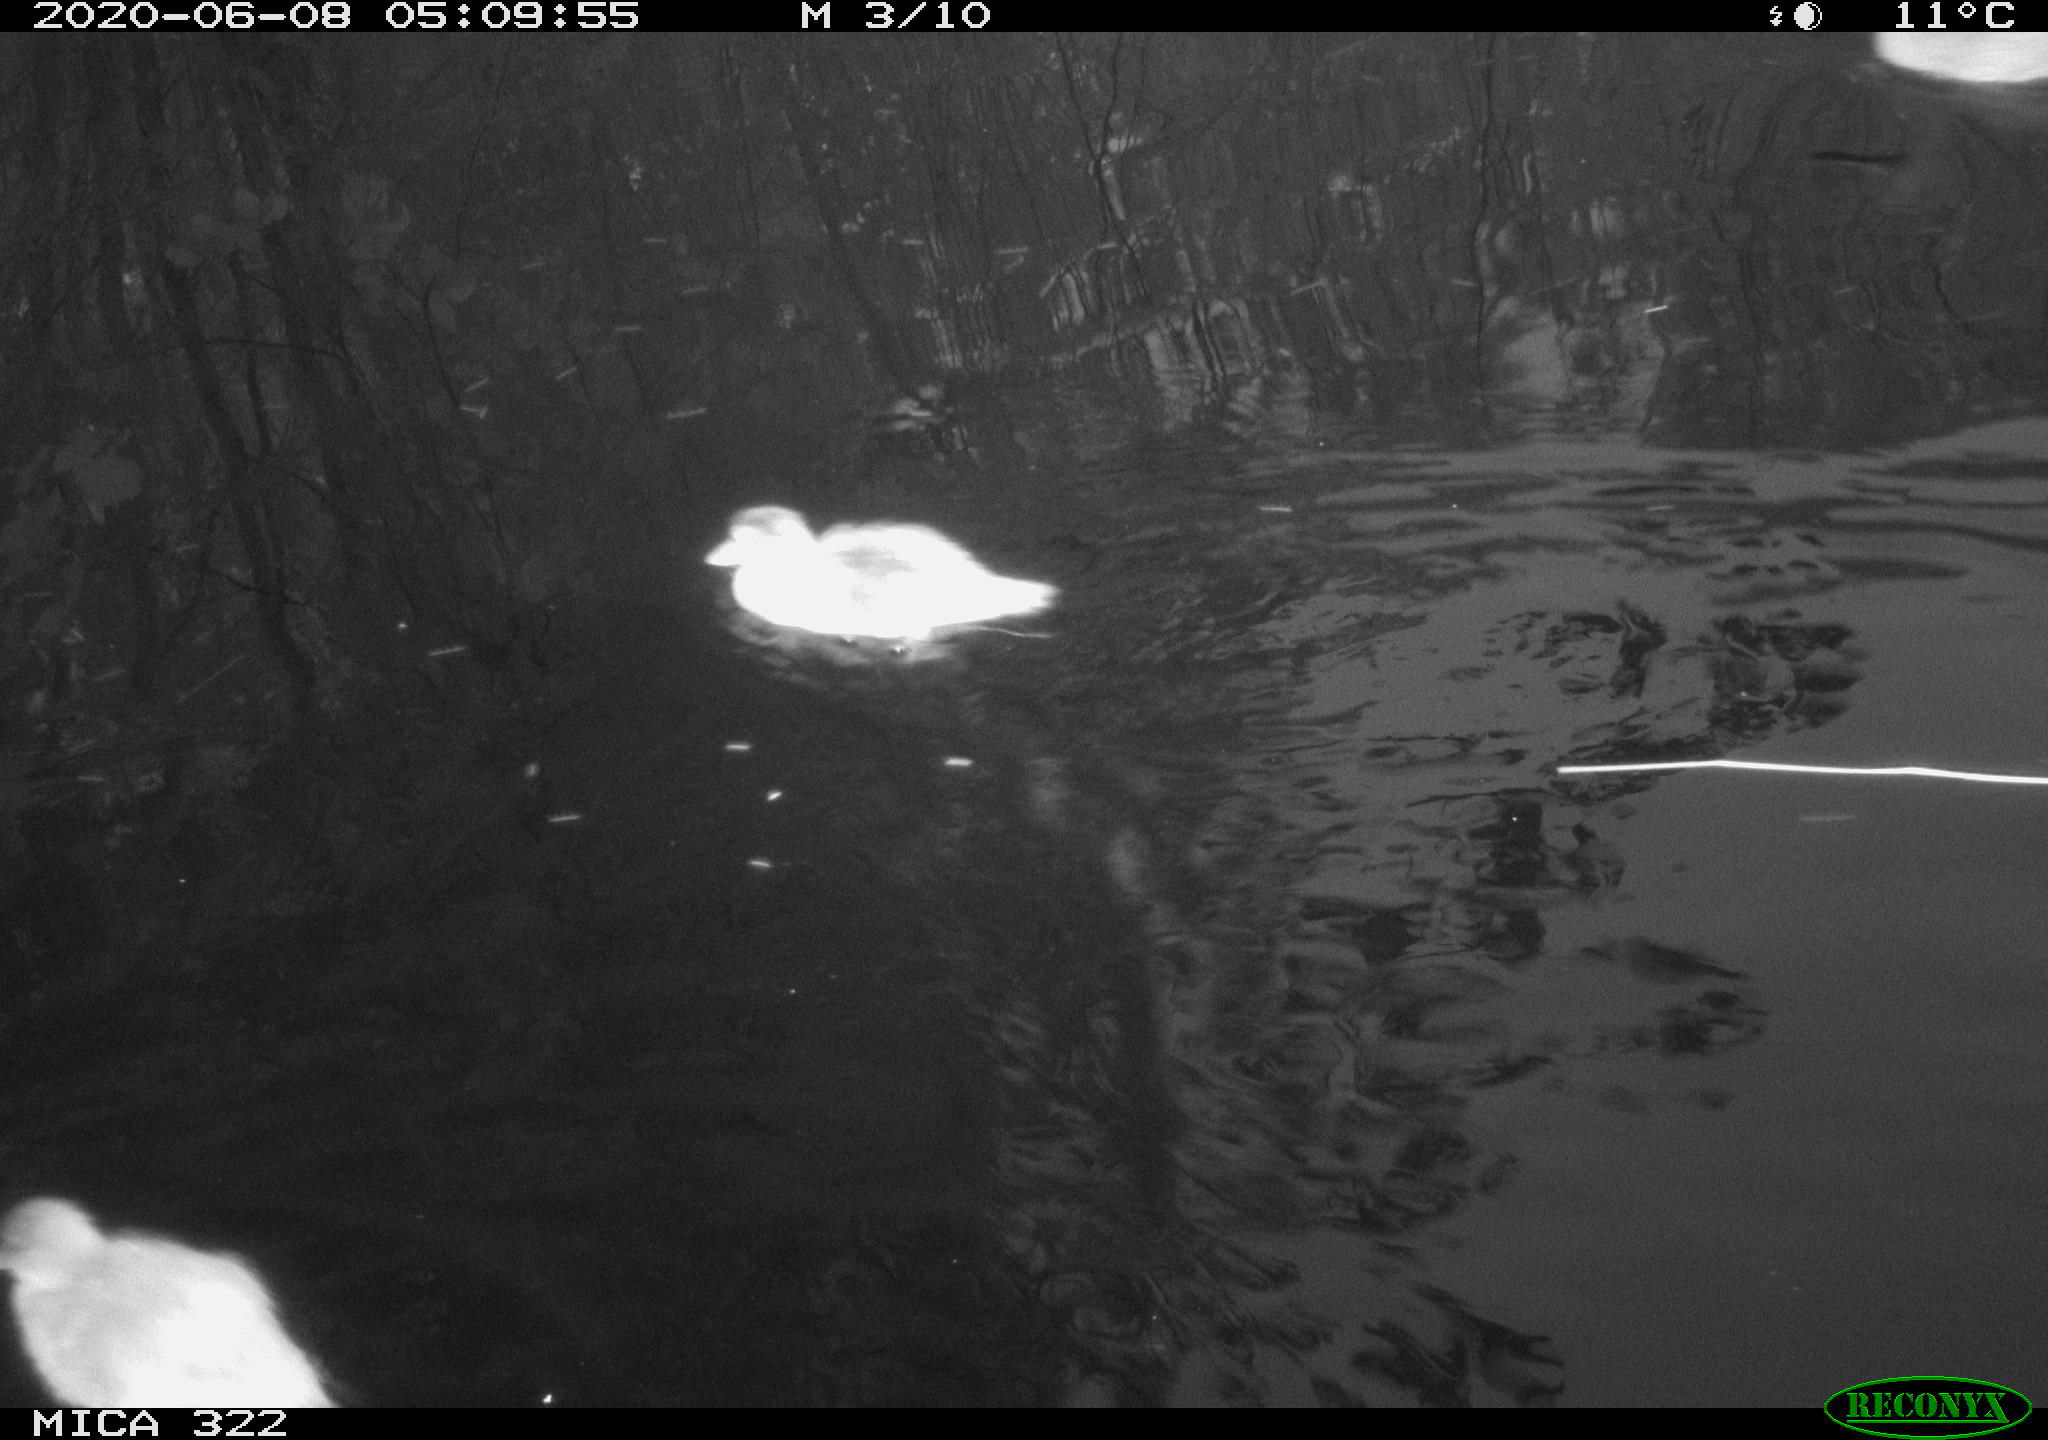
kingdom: Animalia
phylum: Chordata
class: Aves
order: Anseriformes
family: Anatidae
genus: Anas
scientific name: Anas platyrhynchos
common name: Mallard
